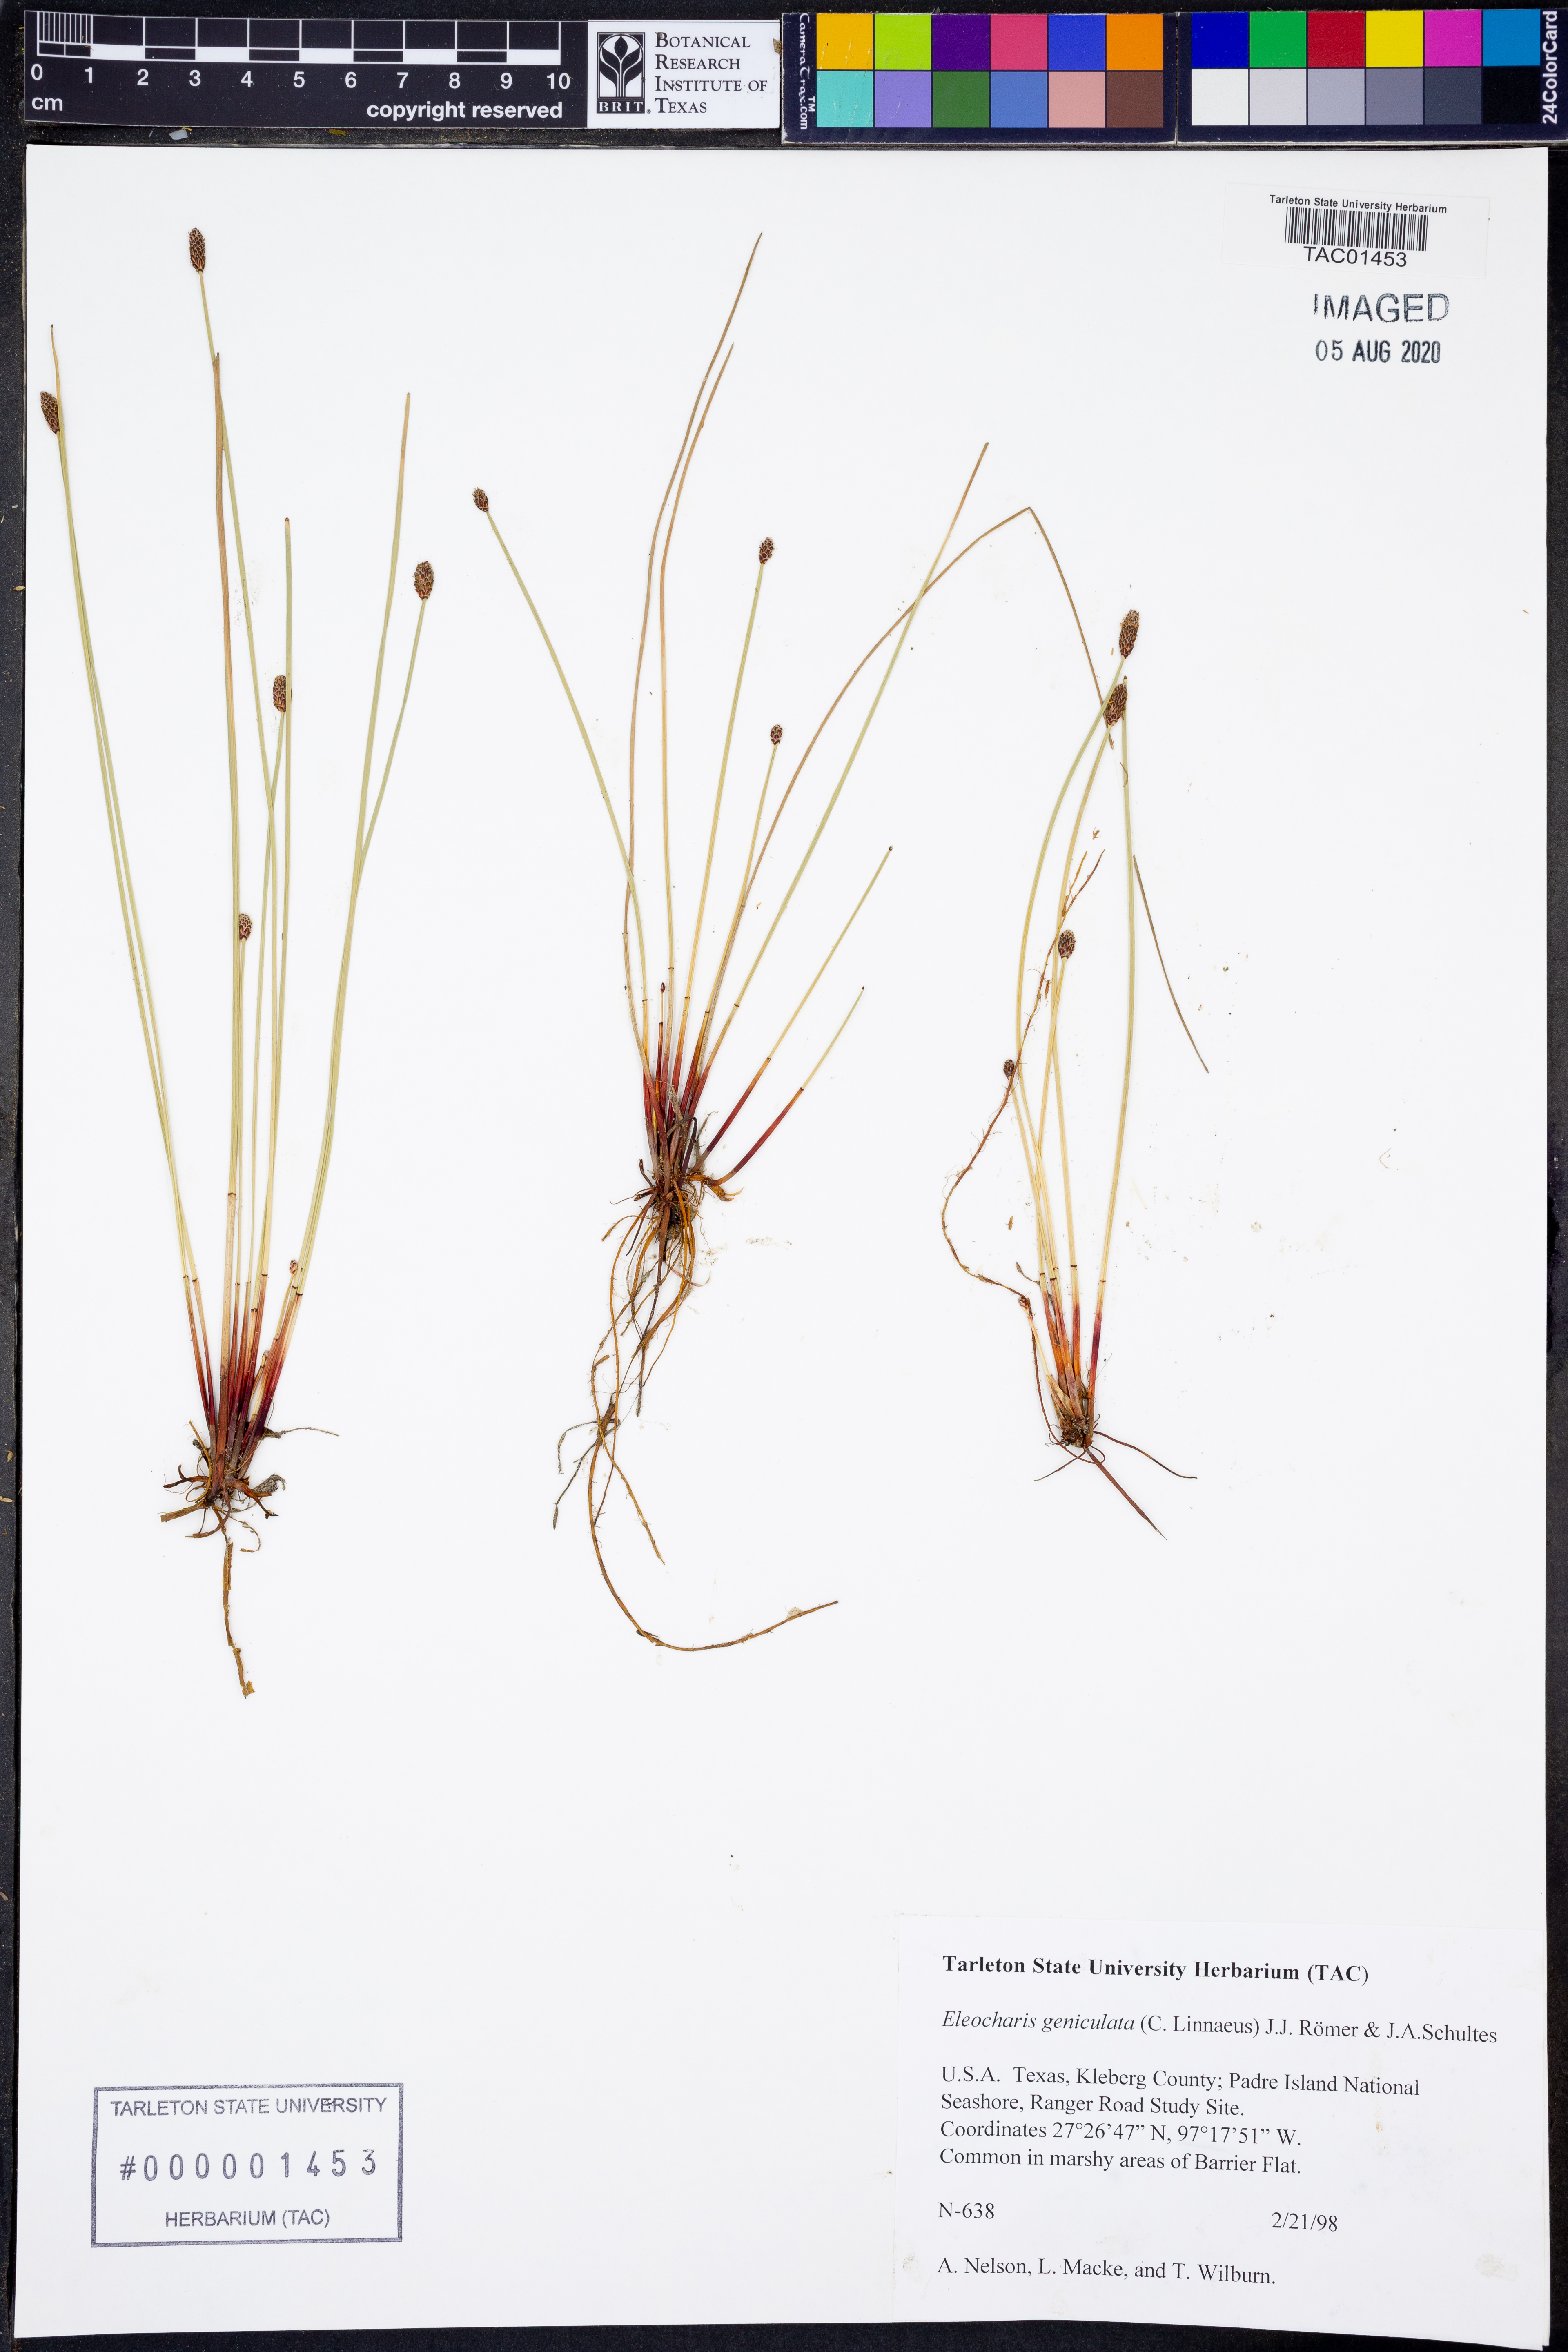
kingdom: Plantae
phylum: Tracheophyta
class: Liliopsida
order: Poales
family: Cyperaceae
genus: Eleocharis
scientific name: Eleocharis geniculata
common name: Canada spikesedge
